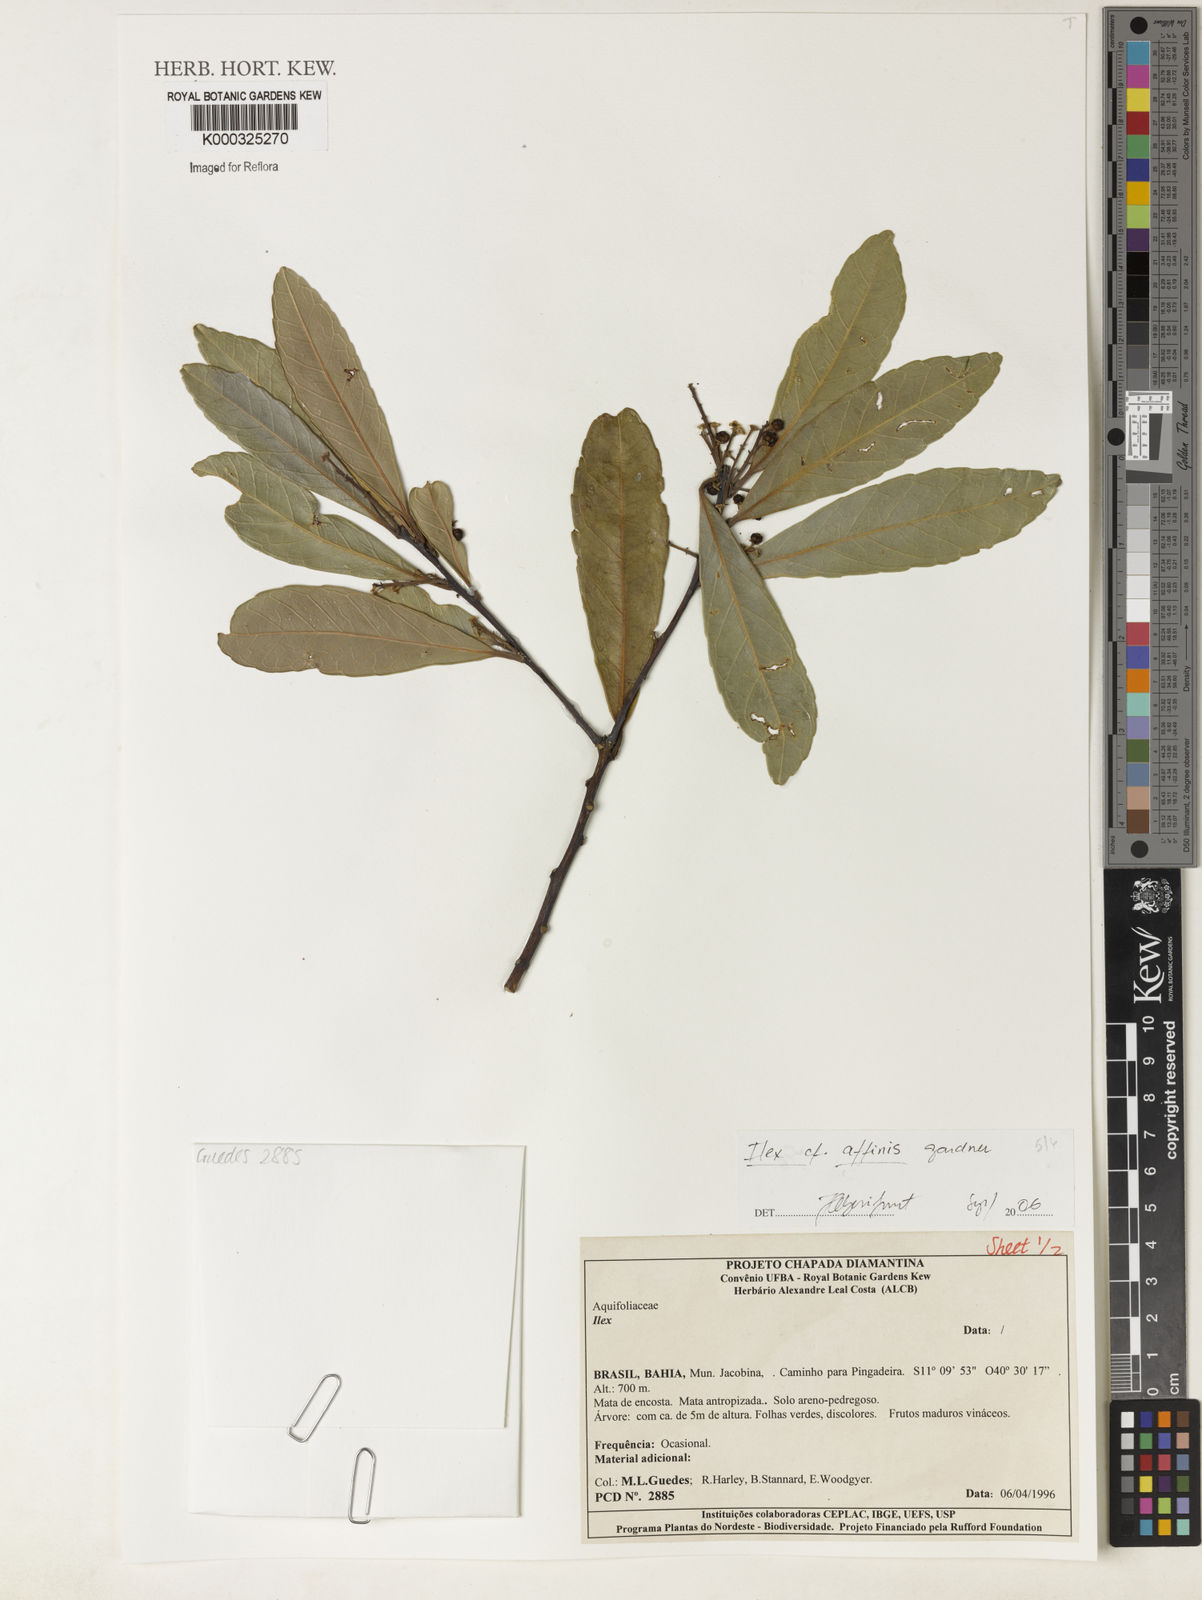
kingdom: Plantae
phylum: Tracheophyta
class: Magnoliopsida
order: Aquifoliales
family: Aquifoliaceae
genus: Ilex
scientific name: Ilex affinis
